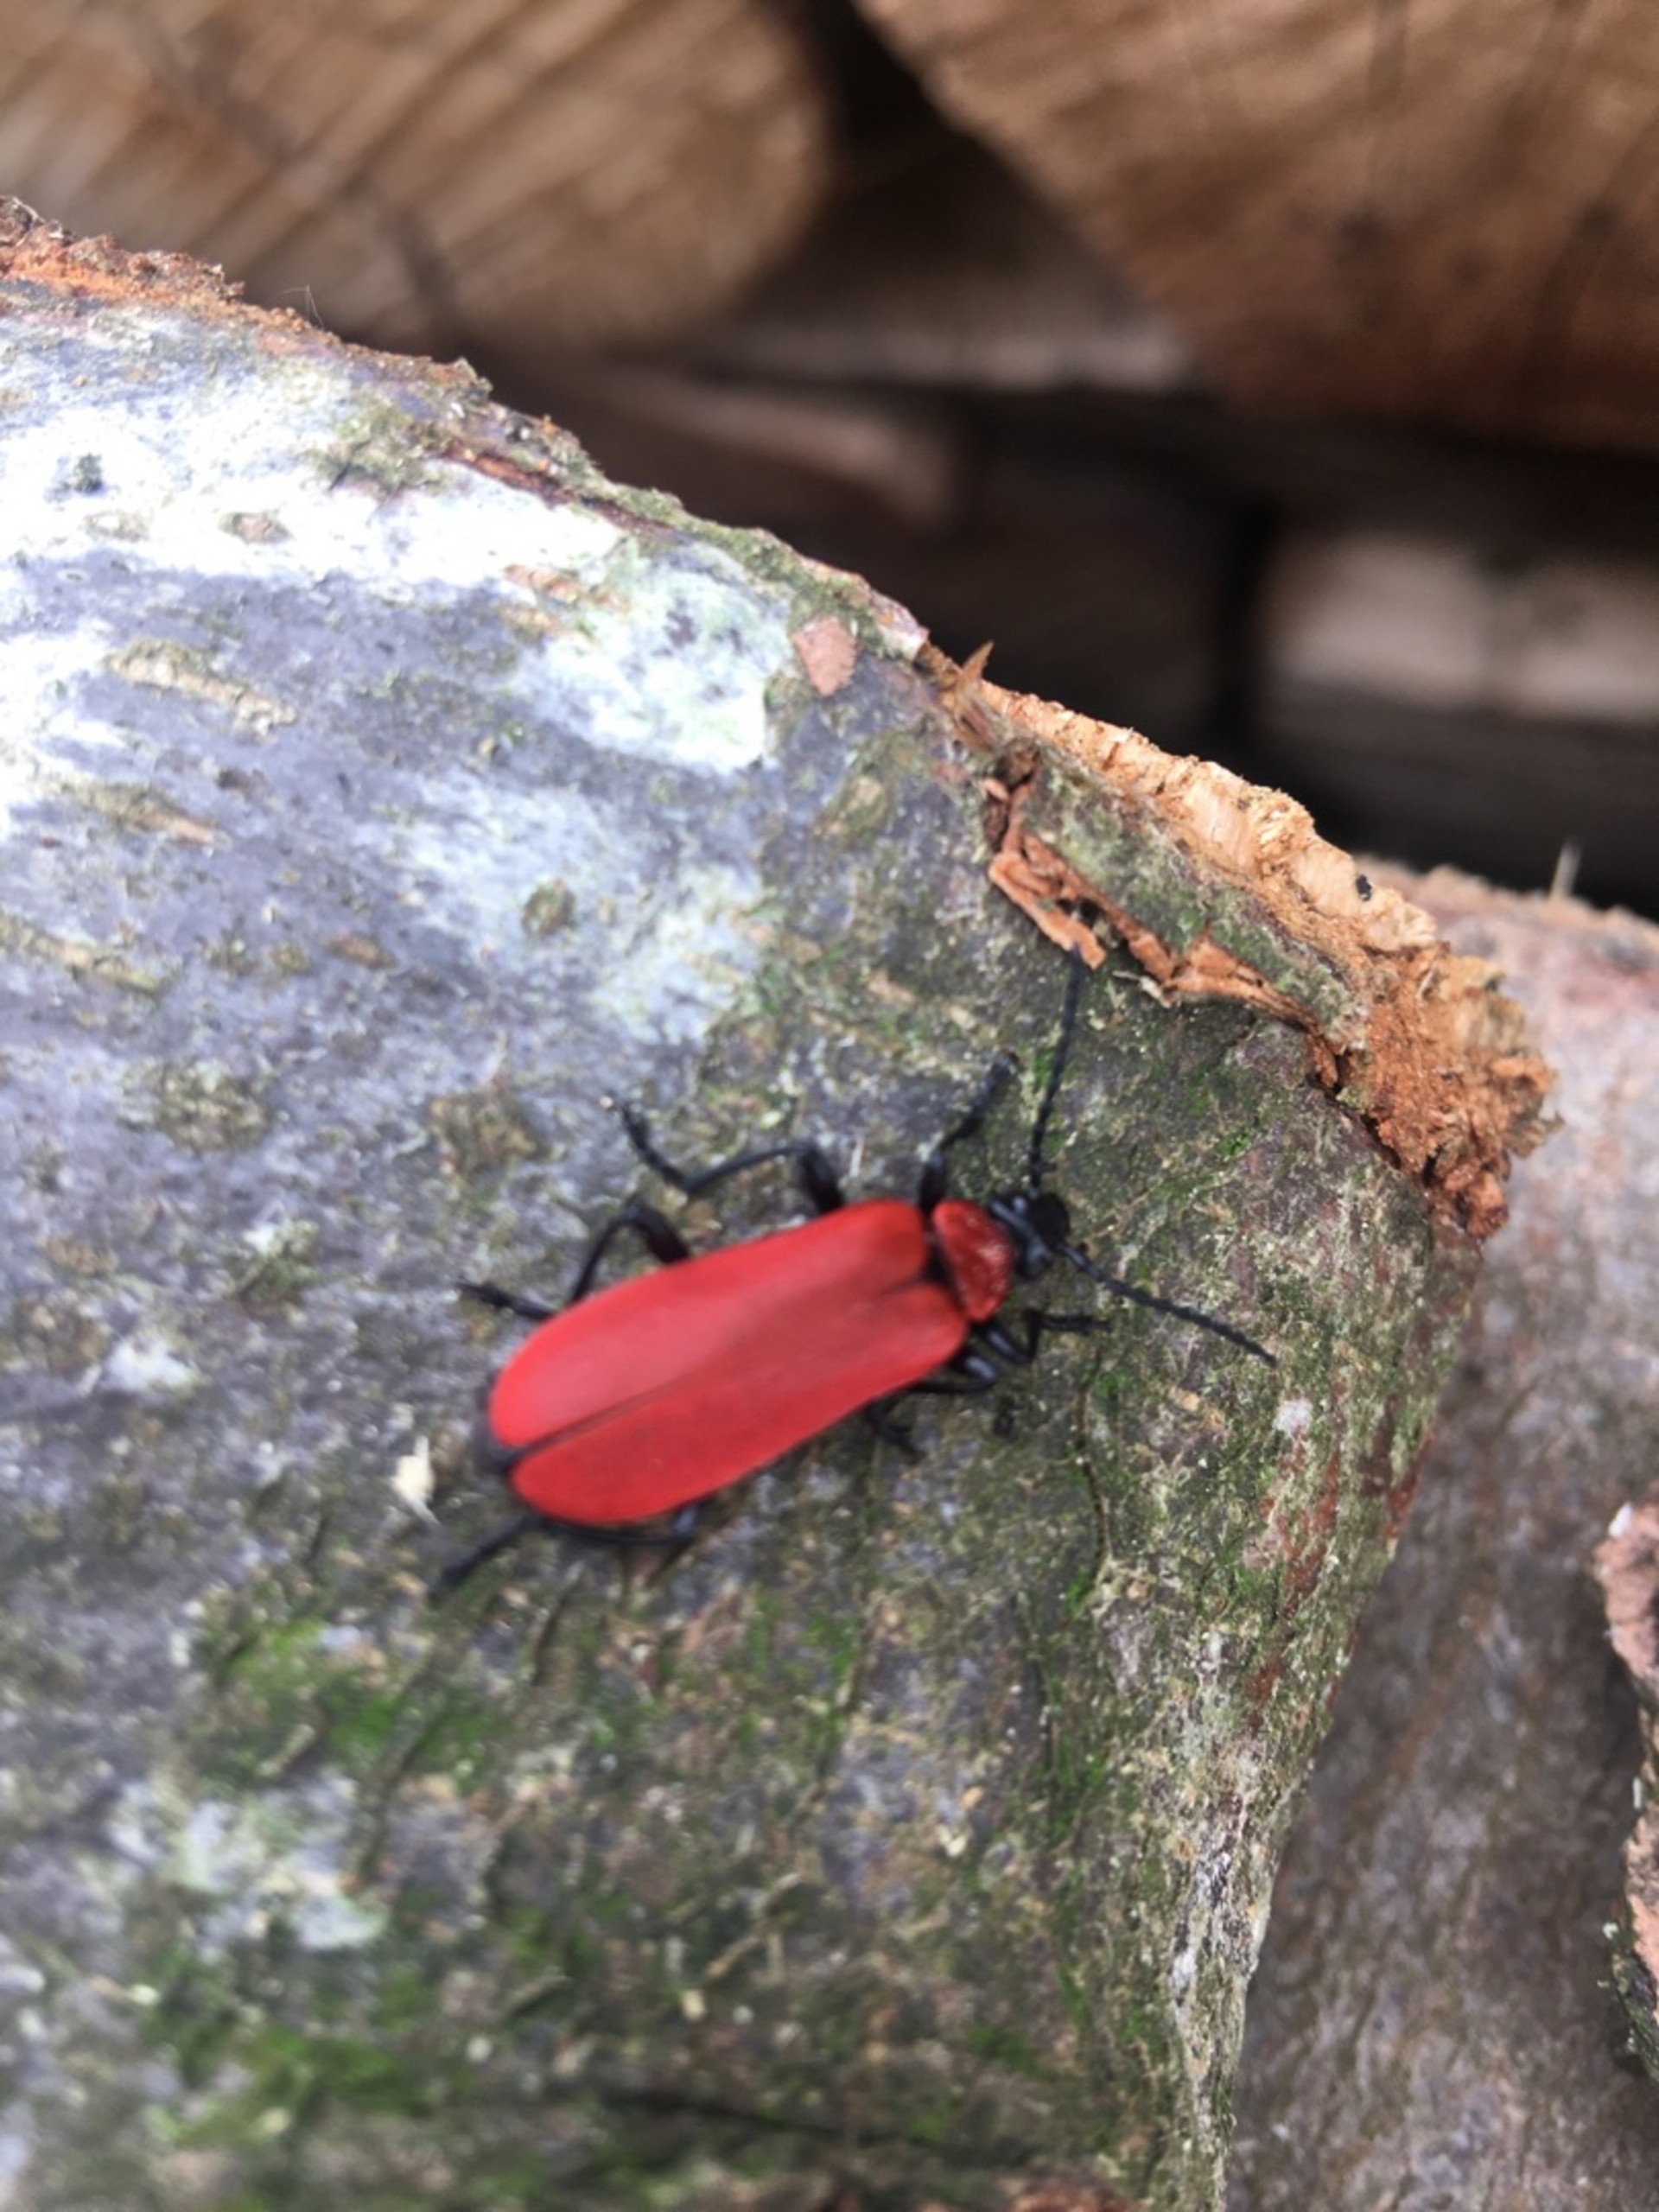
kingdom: Animalia
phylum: Arthropoda
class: Insecta
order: Coleoptera
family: Pyrochroidae
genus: Pyrochroa
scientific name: Pyrochroa coccinea
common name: Sorthovedet kardinalbille
